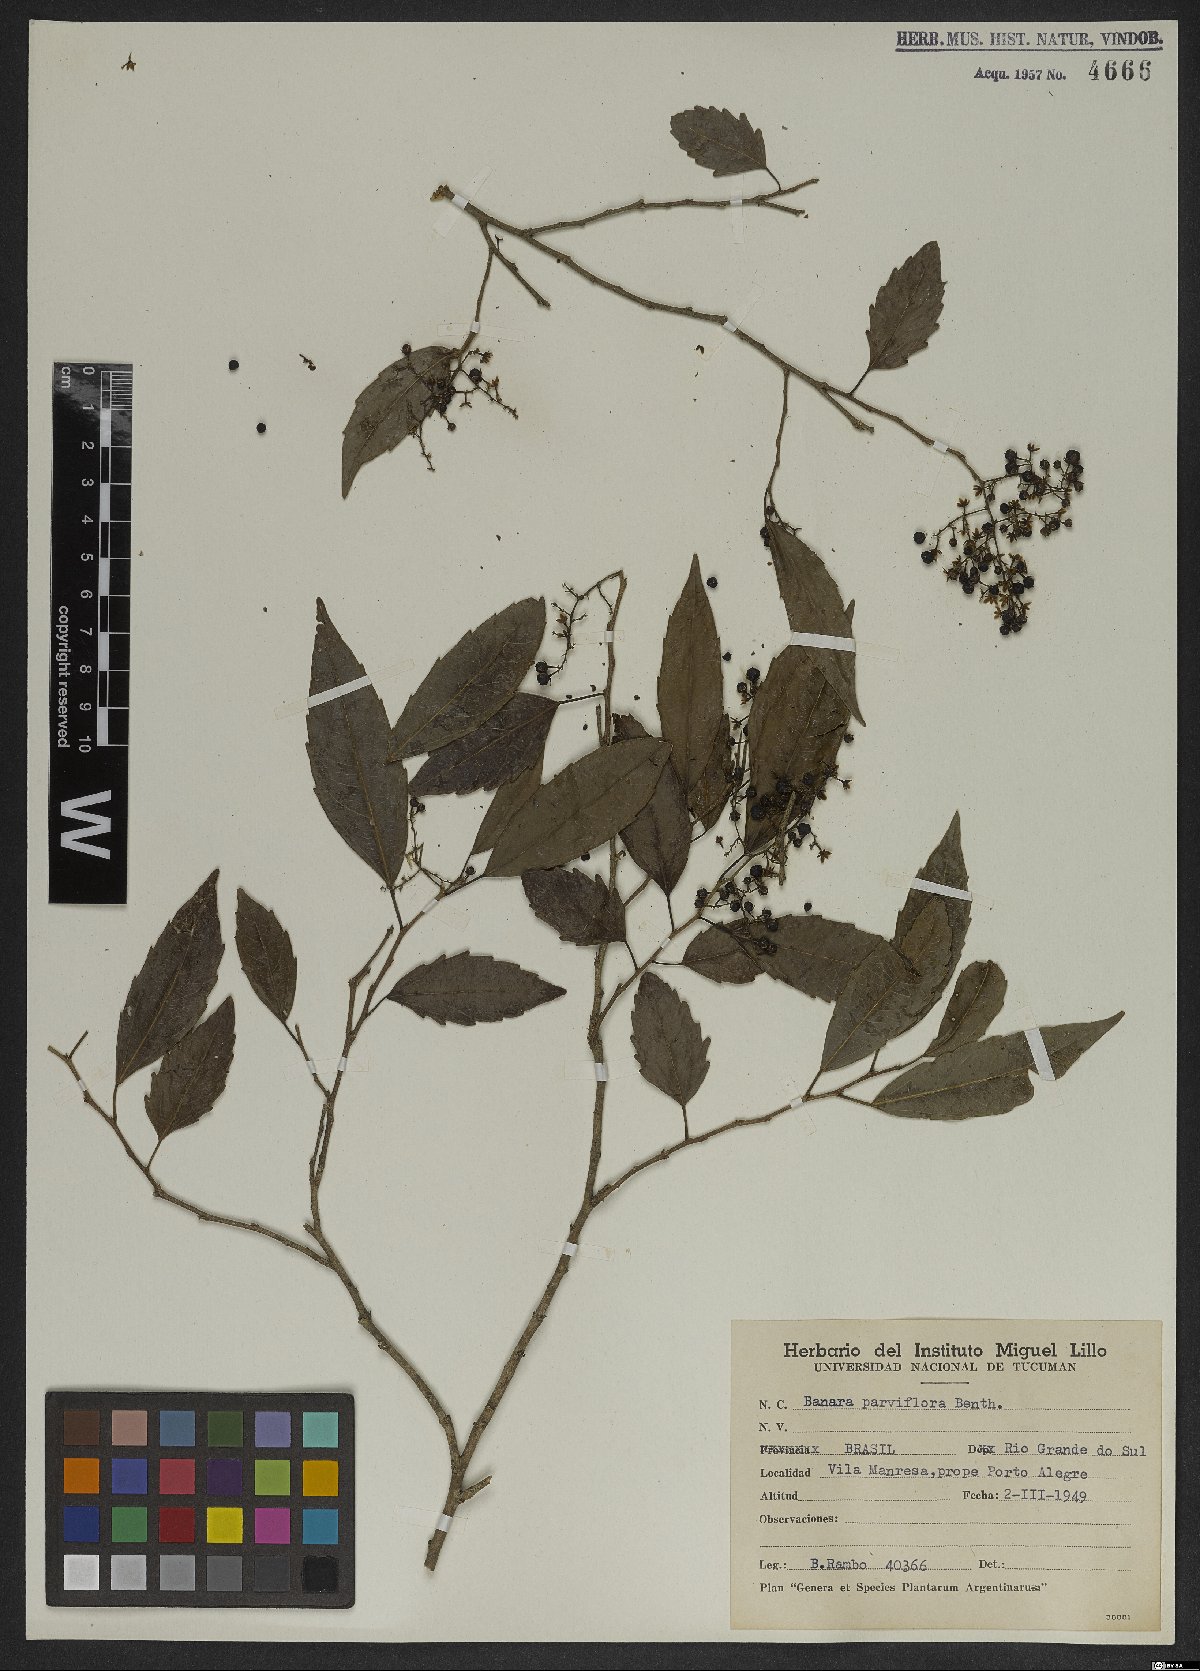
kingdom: Plantae
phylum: Tracheophyta
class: Magnoliopsida
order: Malpighiales
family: Salicaceae
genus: Banara
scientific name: Banara parviflora
